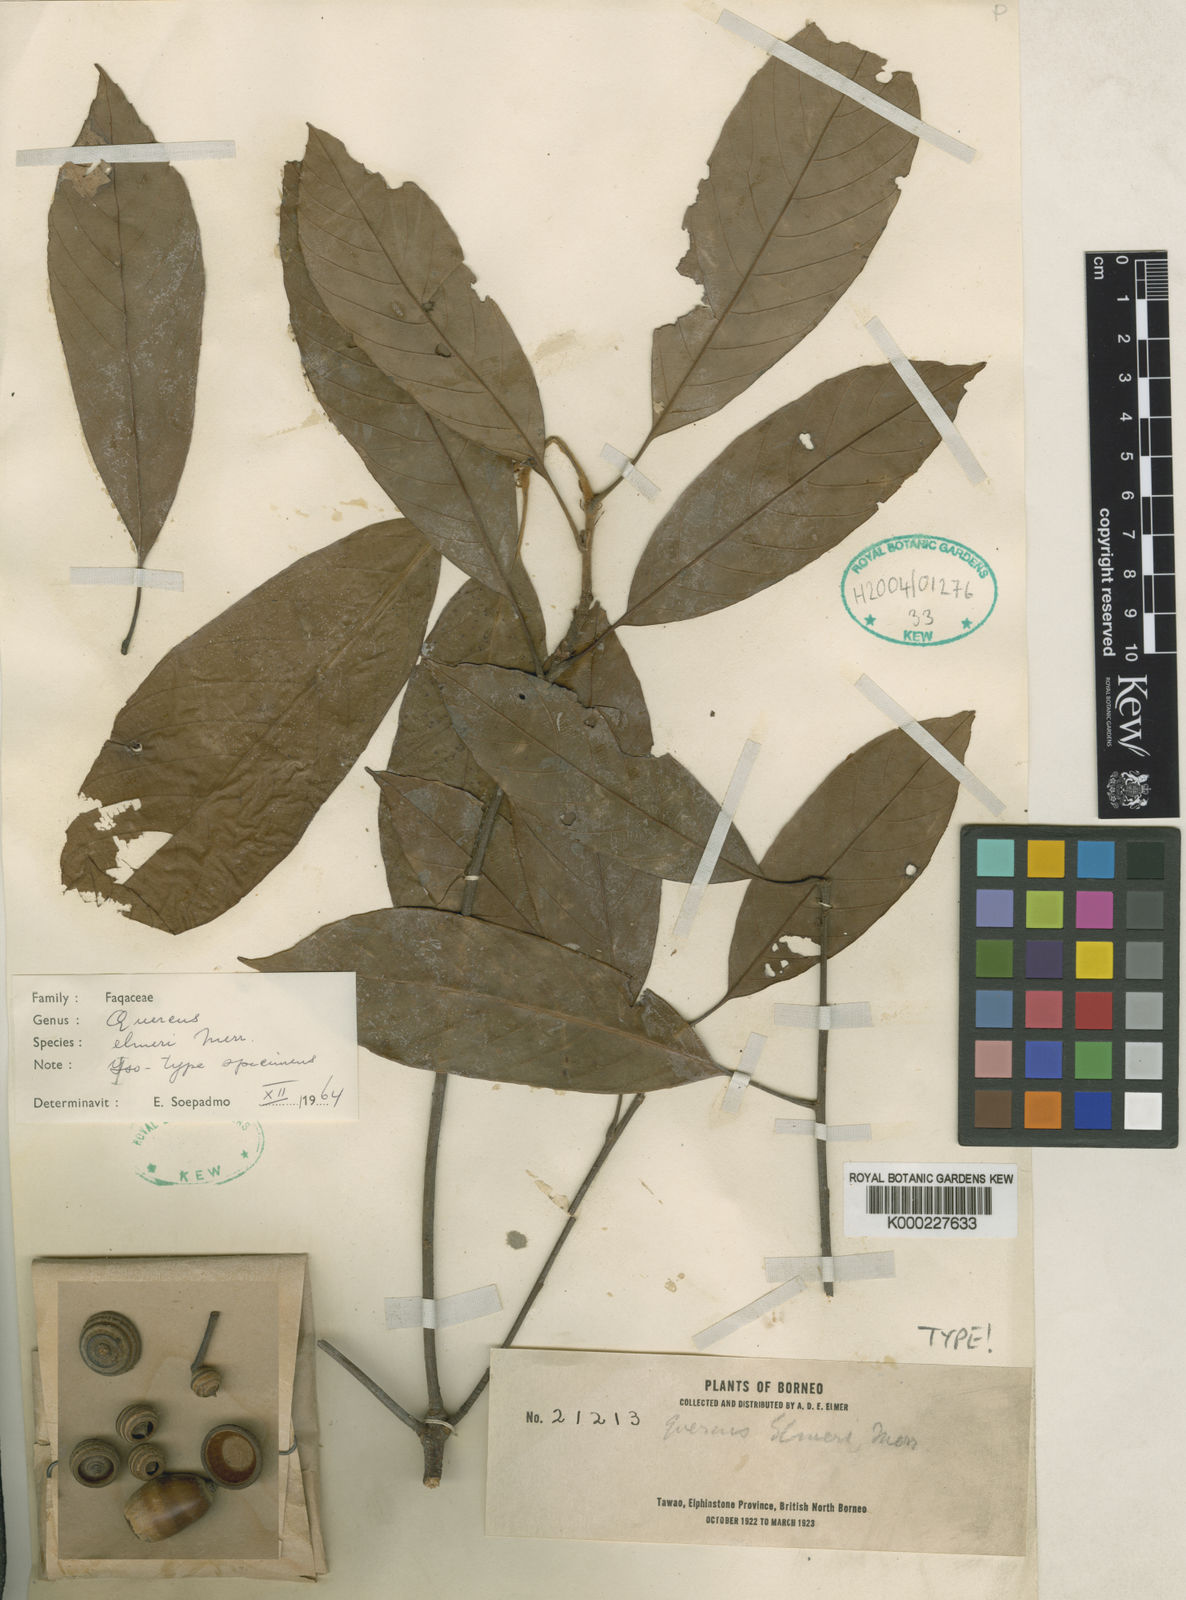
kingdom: Plantae
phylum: Tracheophyta
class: Magnoliopsida
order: Fagales
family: Fagaceae
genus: Quercus
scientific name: Quercus elmeri
